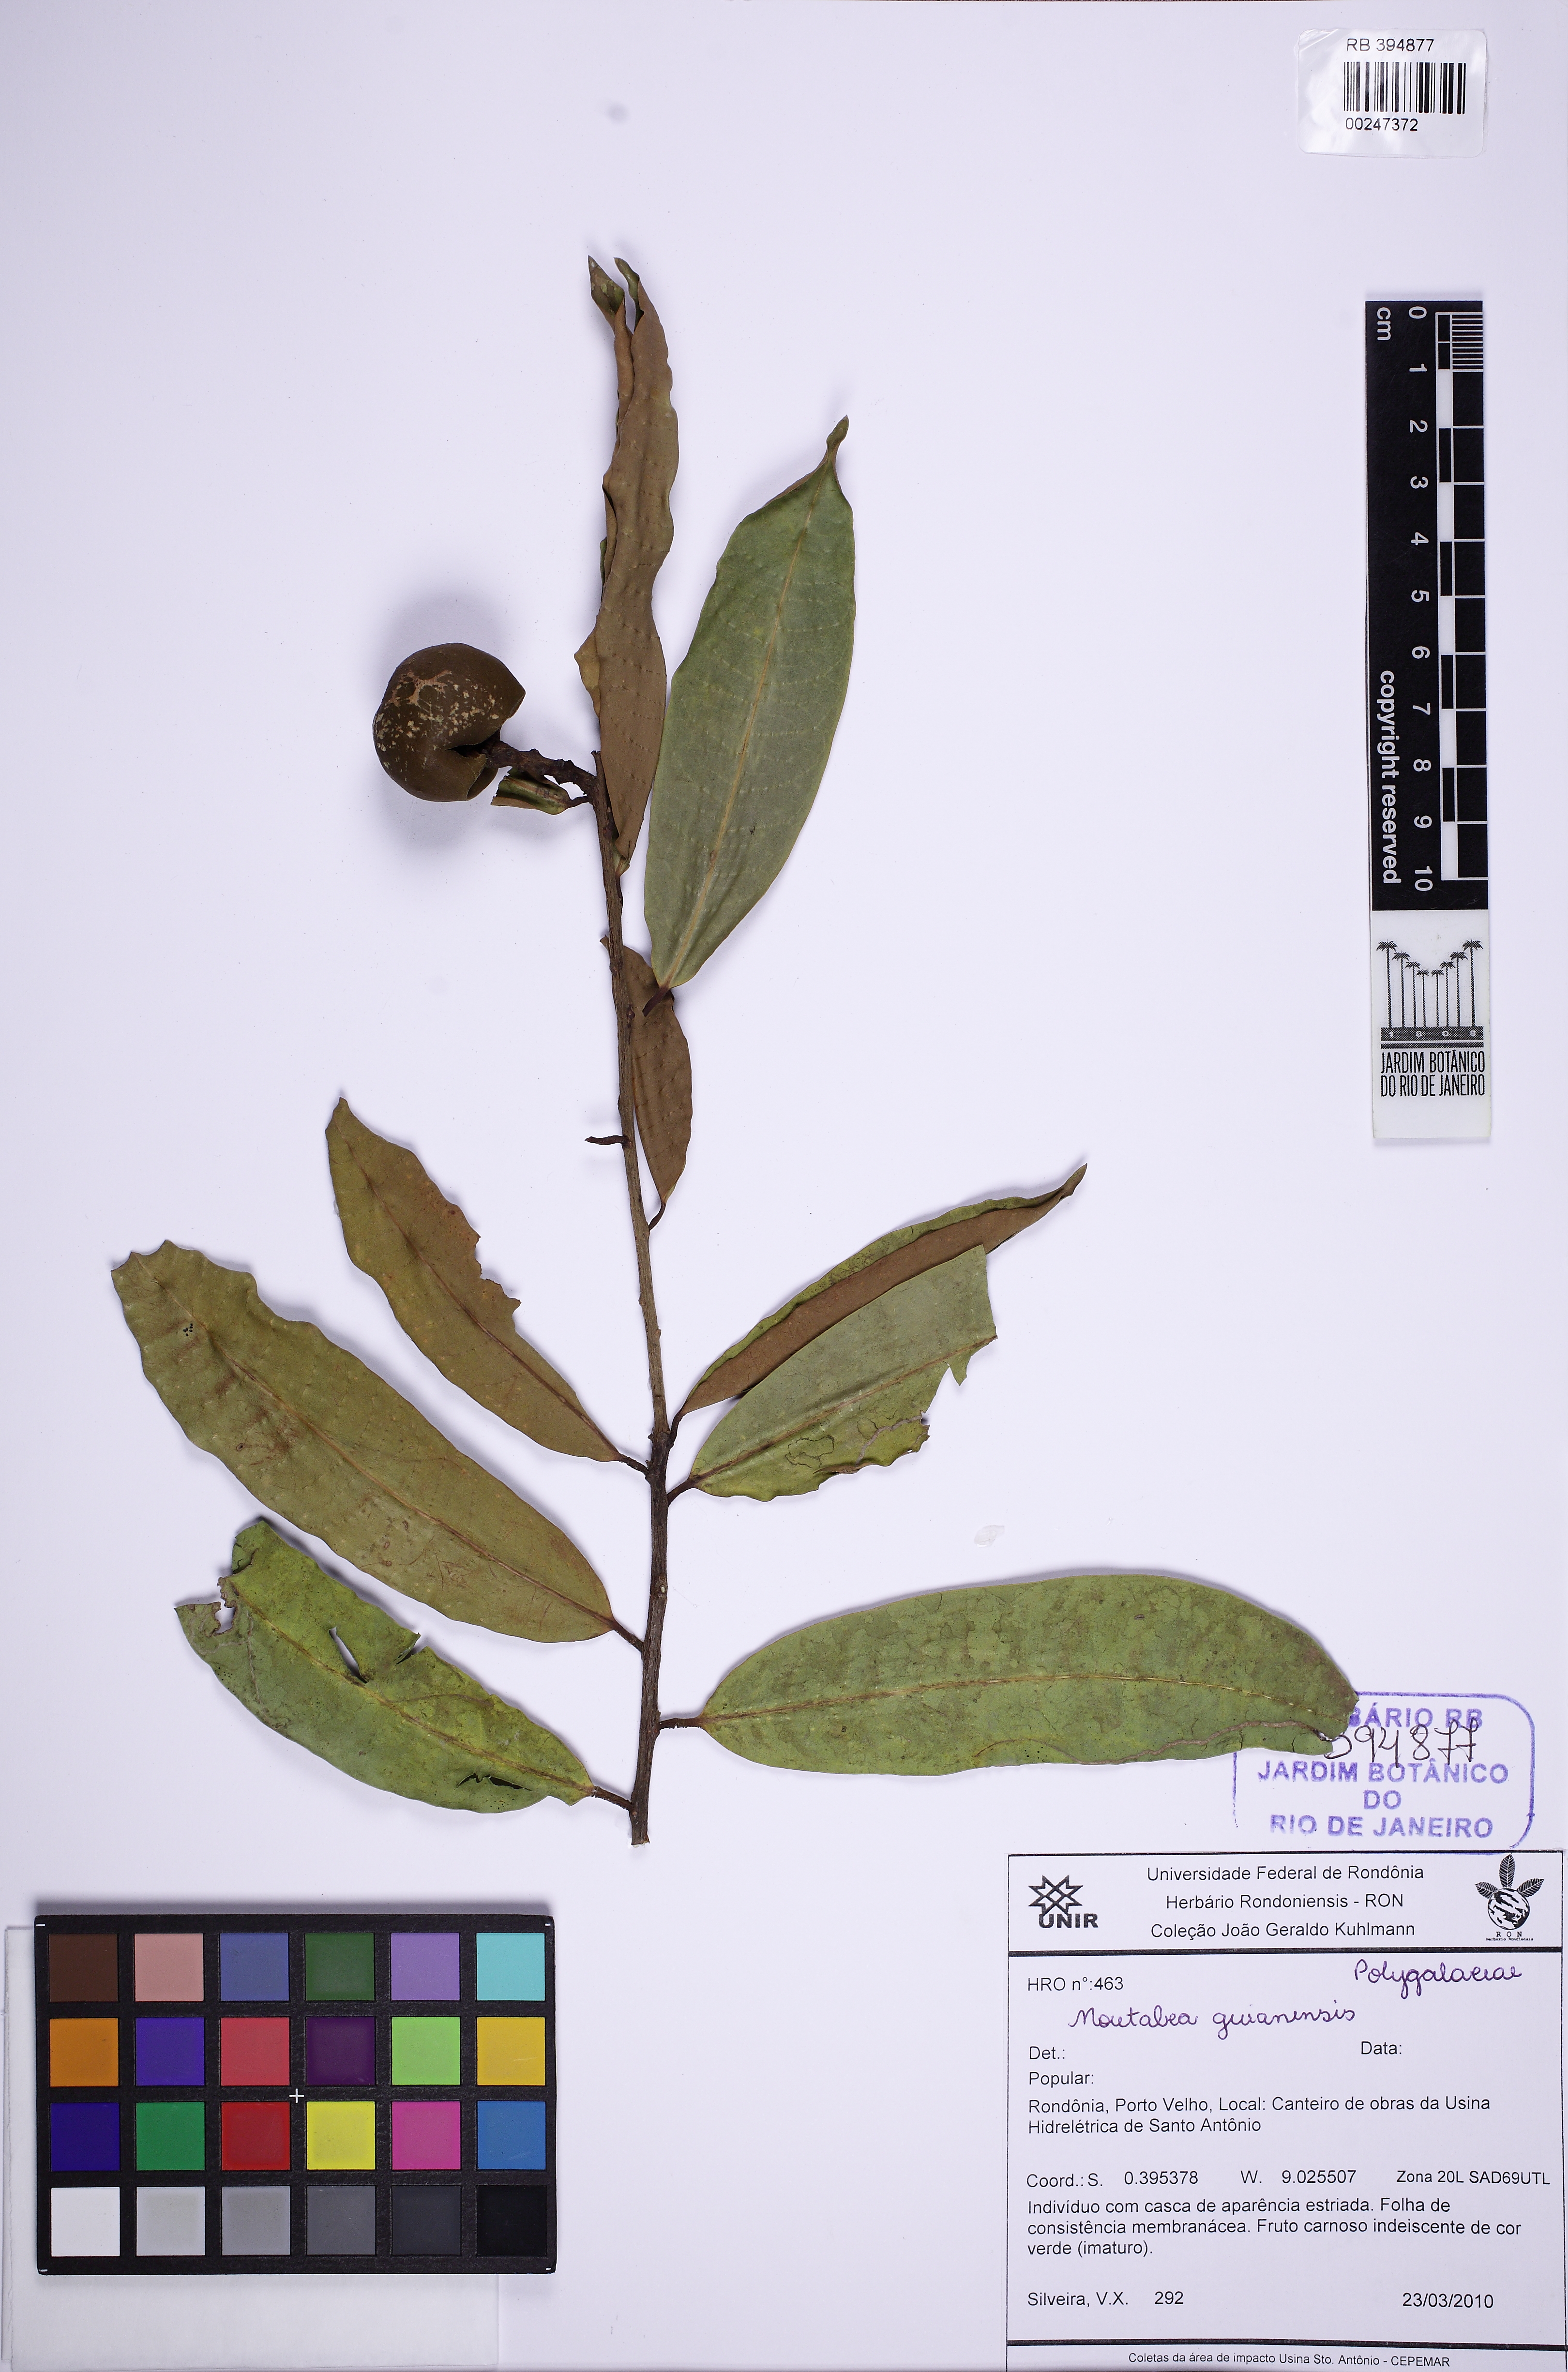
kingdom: Plantae
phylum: Tracheophyta
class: Magnoliopsida
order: Fabales
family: Polygalaceae
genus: Moutabea
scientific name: Moutabea guianensis
